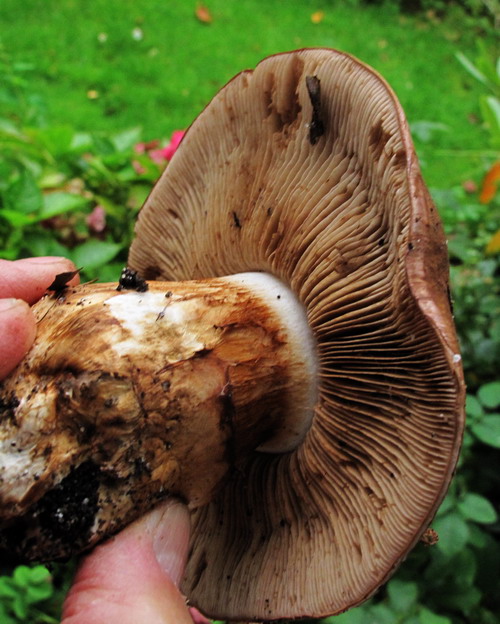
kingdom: Fungi
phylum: Basidiomycota
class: Agaricomycetes
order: Agaricales
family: Cortinariaceae
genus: Phlegmacium
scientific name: Phlegmacium balteatocumatile
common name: violettrådet slørhat
